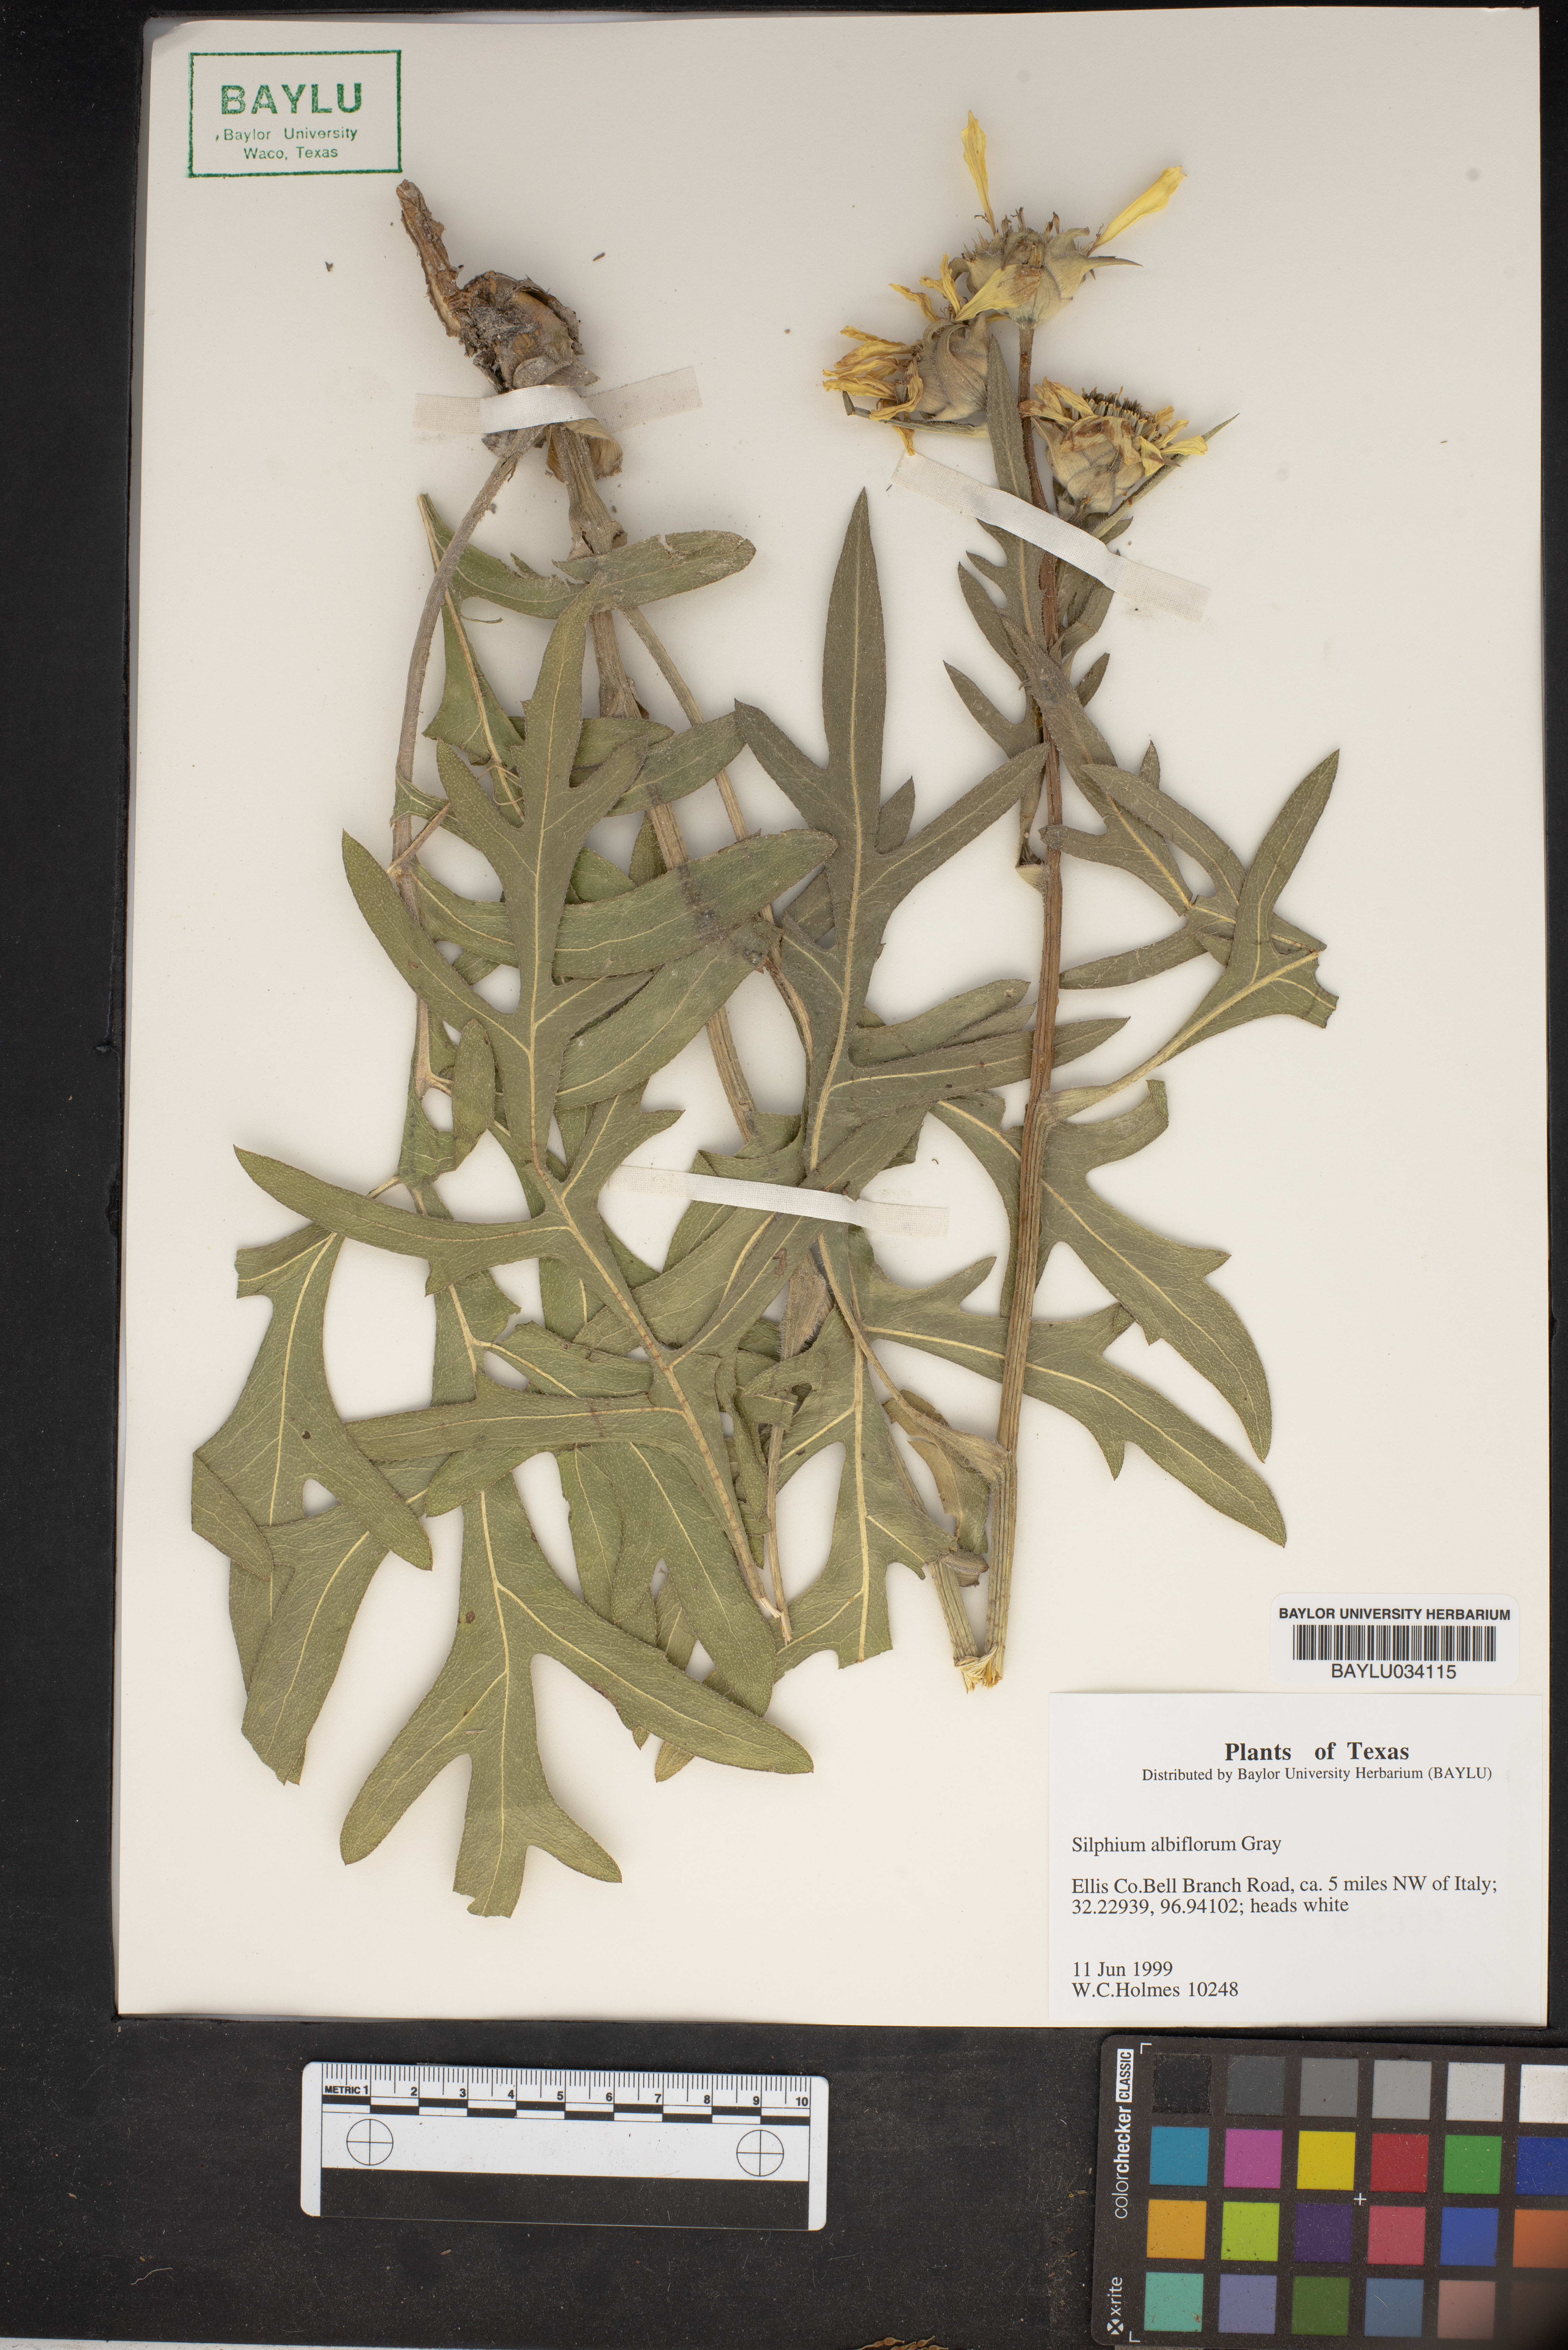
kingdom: Plantae
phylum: Tracheophyta
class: Magnoliopsida
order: Asterales
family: Asteraceae
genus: Silphium
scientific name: Silphium albiflorum
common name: White rosinweed
